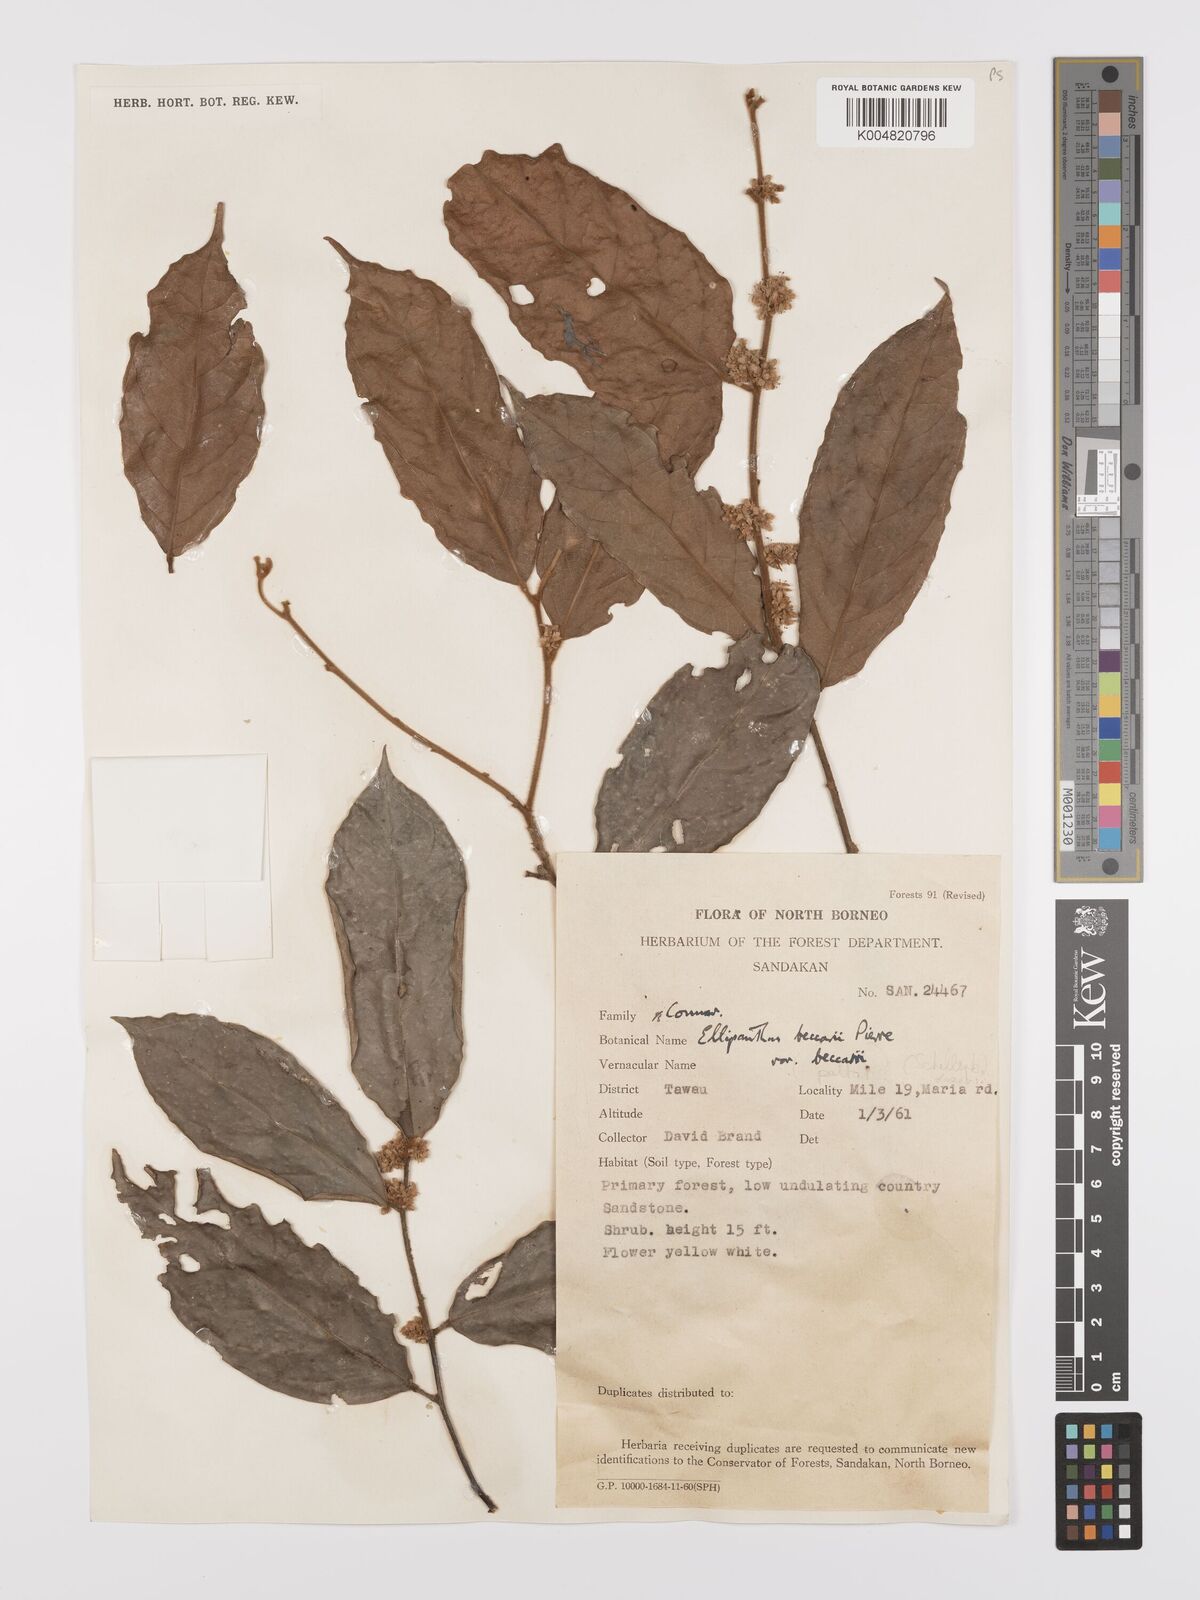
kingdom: Plantae
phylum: Tracheophyta
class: Magnoliopsida
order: Oxalidales
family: Connaraceae
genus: Ellipanthus
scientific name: Ellipanthus beccarii
